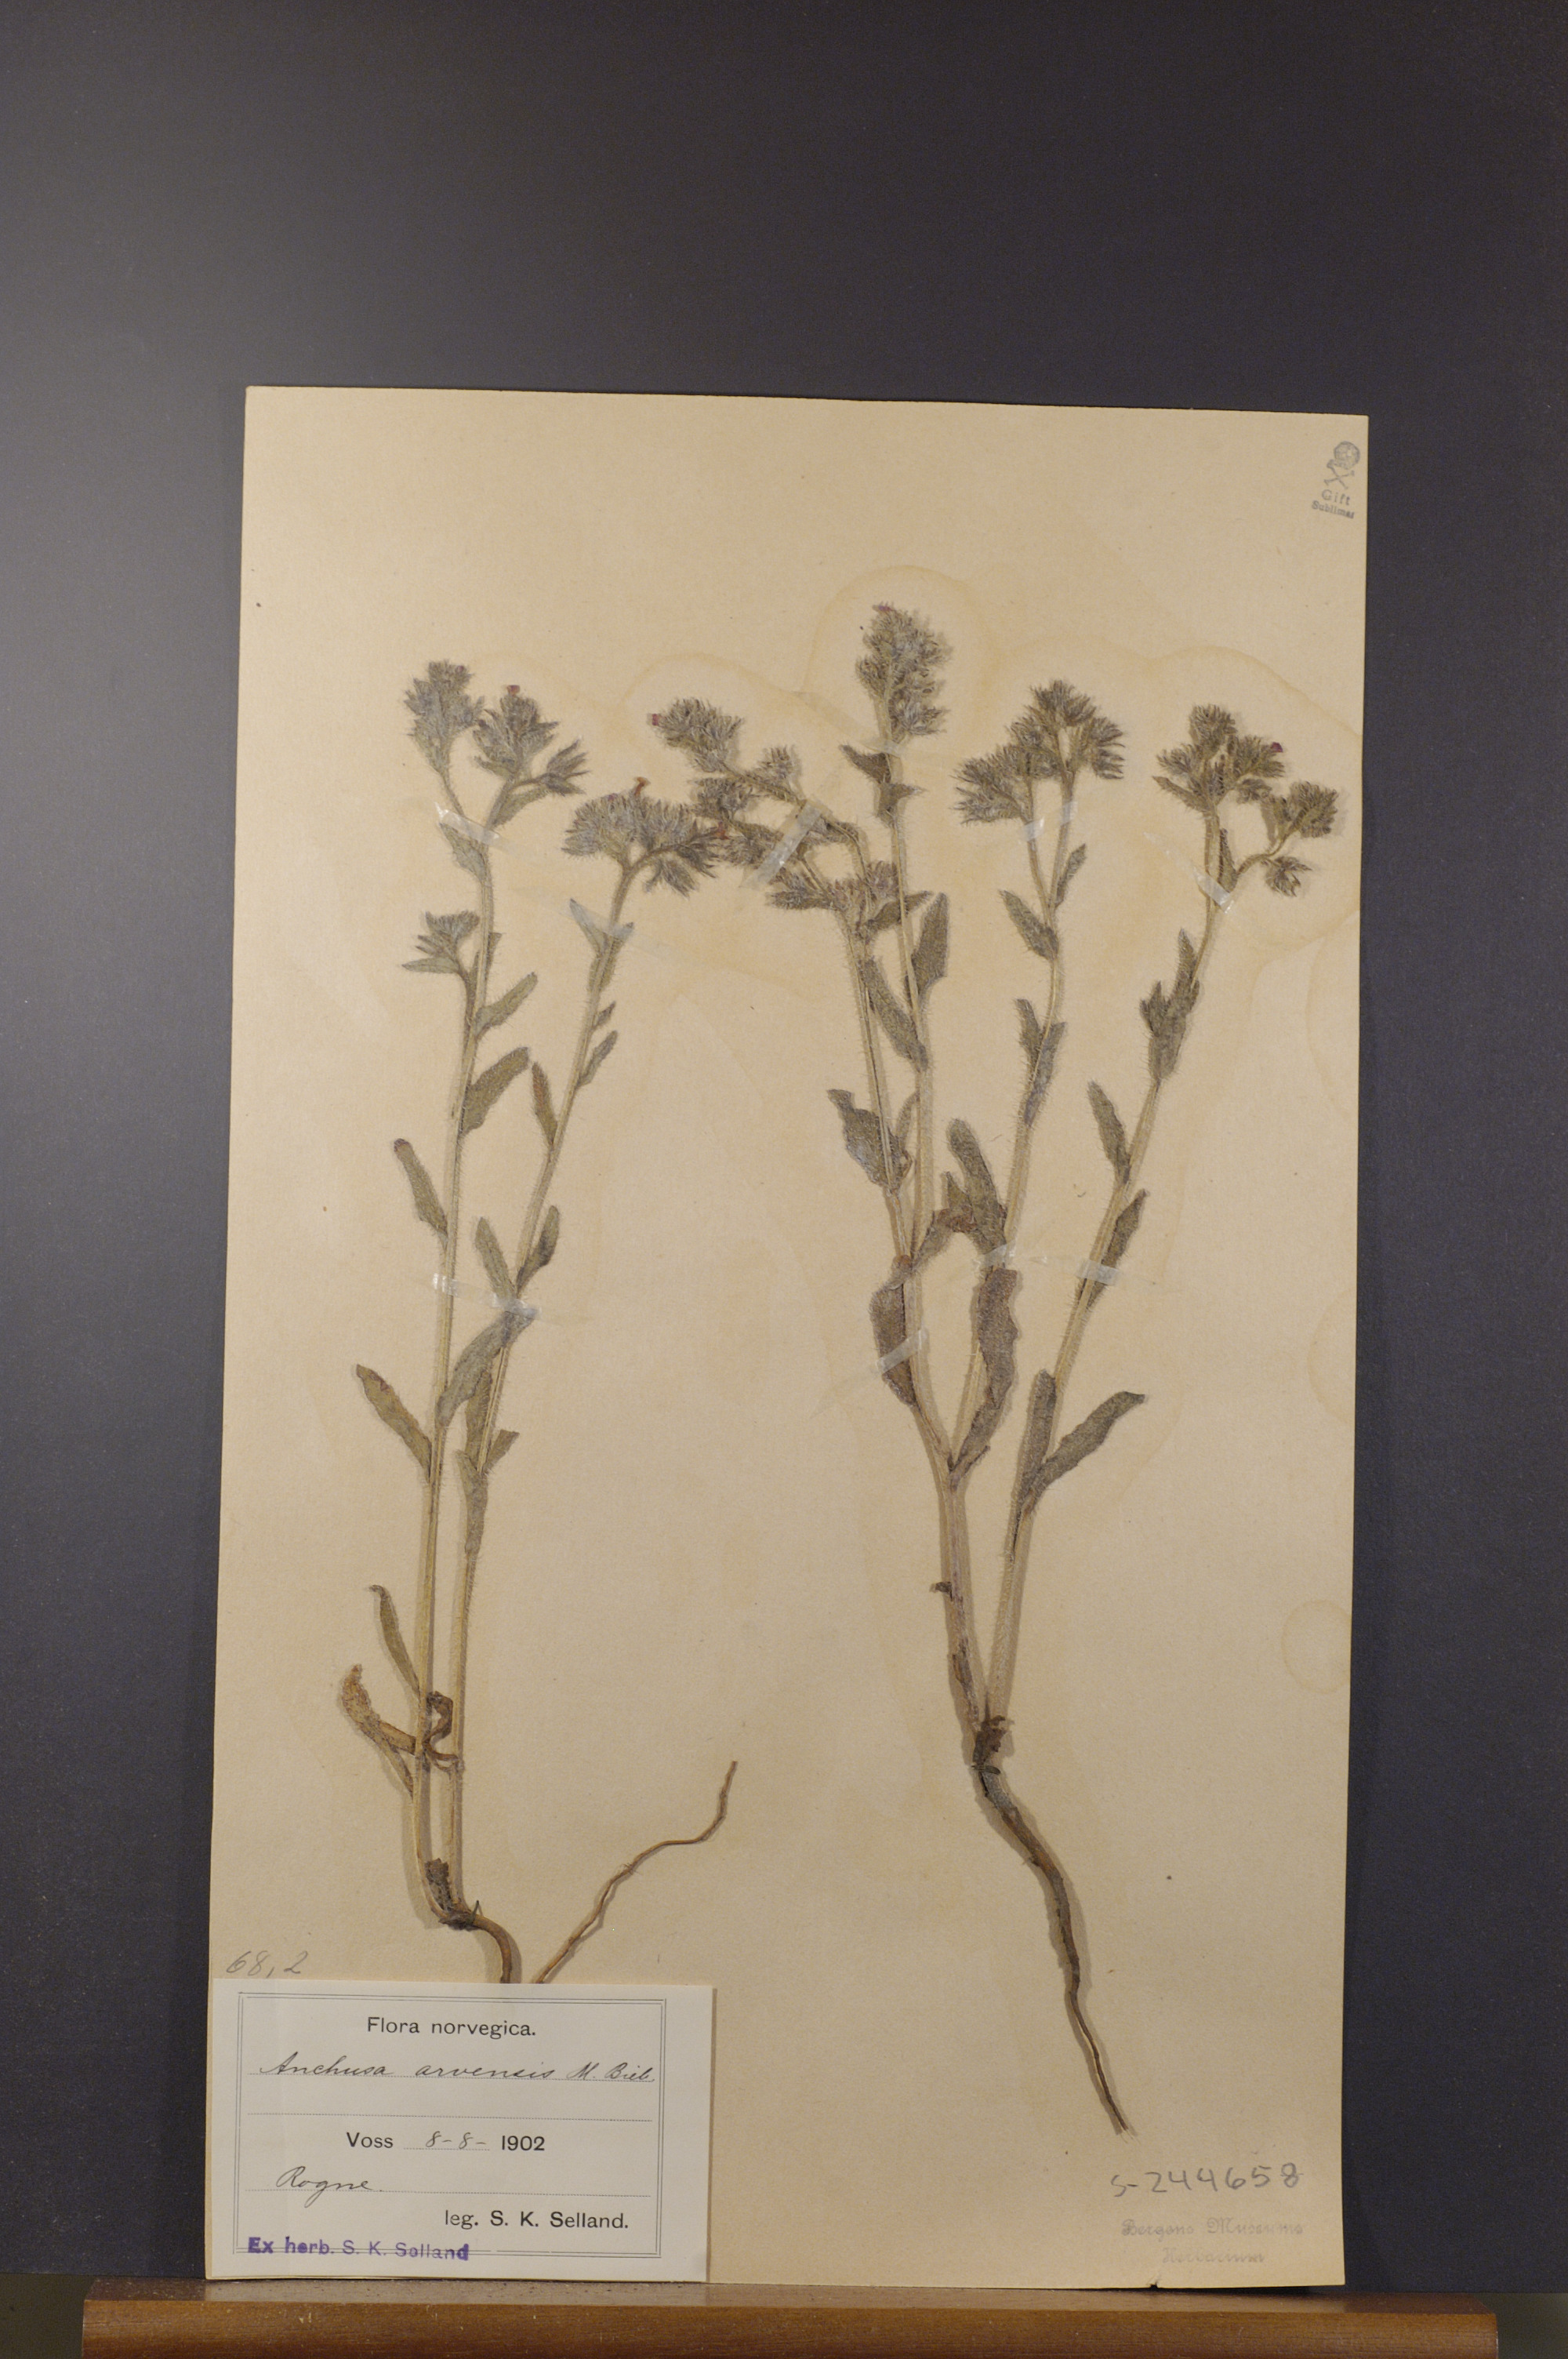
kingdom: Plantae
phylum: Tracheophyta
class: Magnoliopsida
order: Boraginales
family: Boraginaceae
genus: Lycopsis
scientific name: Lycopsis arvensis
